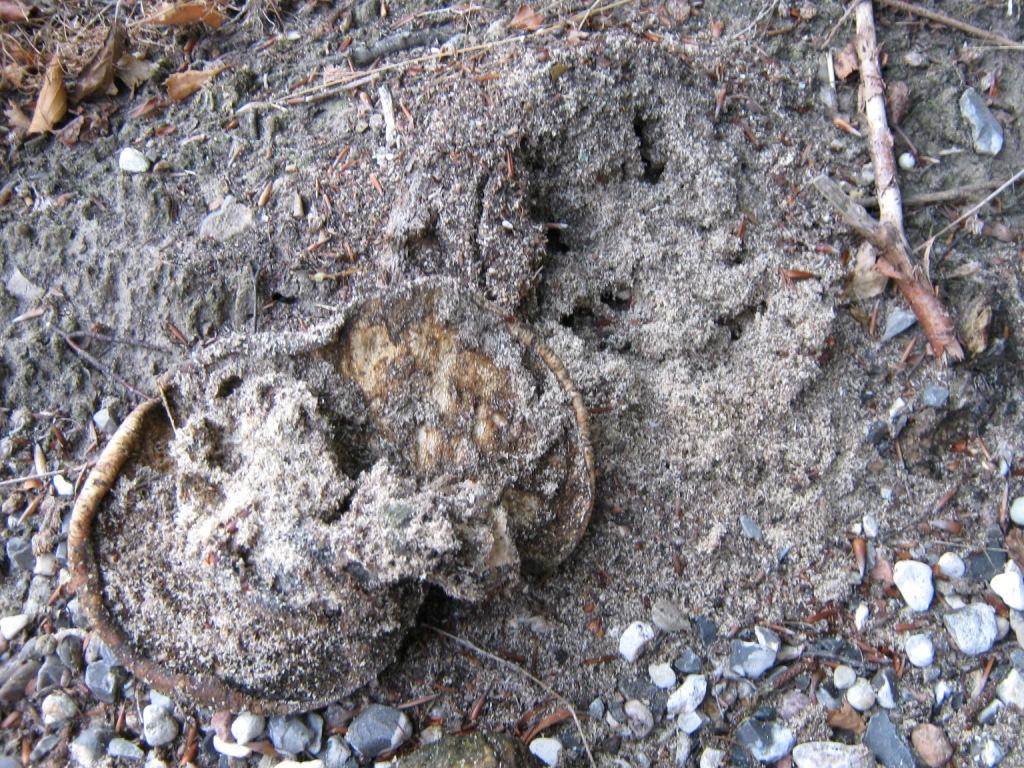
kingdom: Fungi
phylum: Basidiomycota
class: Agaricomycetes
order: Polyporales
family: Polyporaceae
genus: Cerioporus
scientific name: Cerioporus squamosus
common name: skællet stilkporesvamp
